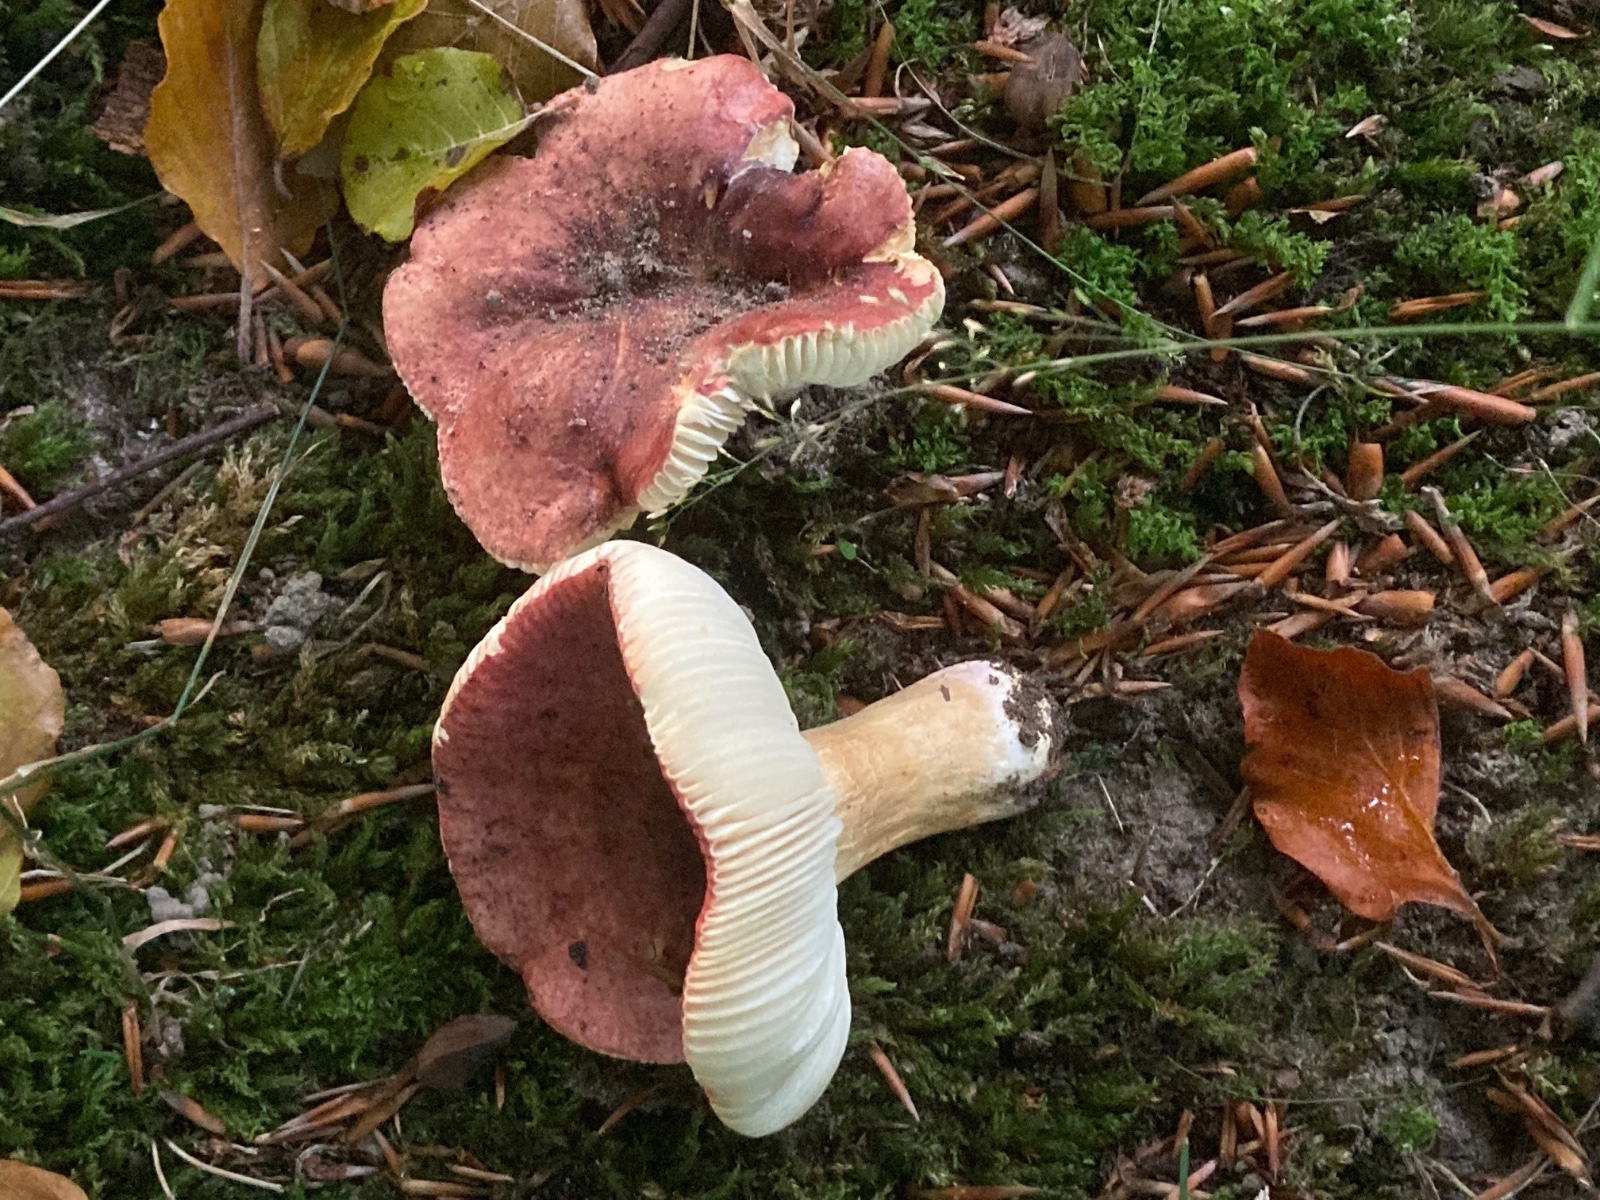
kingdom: Fungi
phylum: Basidiomycota
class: Agaricomycetes
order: Russulales
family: Russulaceae
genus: Russula
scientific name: Russula melliolens
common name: honning-skørhat
